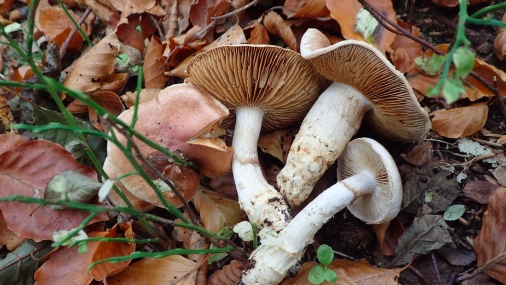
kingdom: Fungi
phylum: Basidiomycota
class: Agaricomycetes
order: Agaricales
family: Cortinariaceae
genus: Phlegmacium
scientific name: Phlegmacium vulpinum
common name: ringbæltet slørhat
